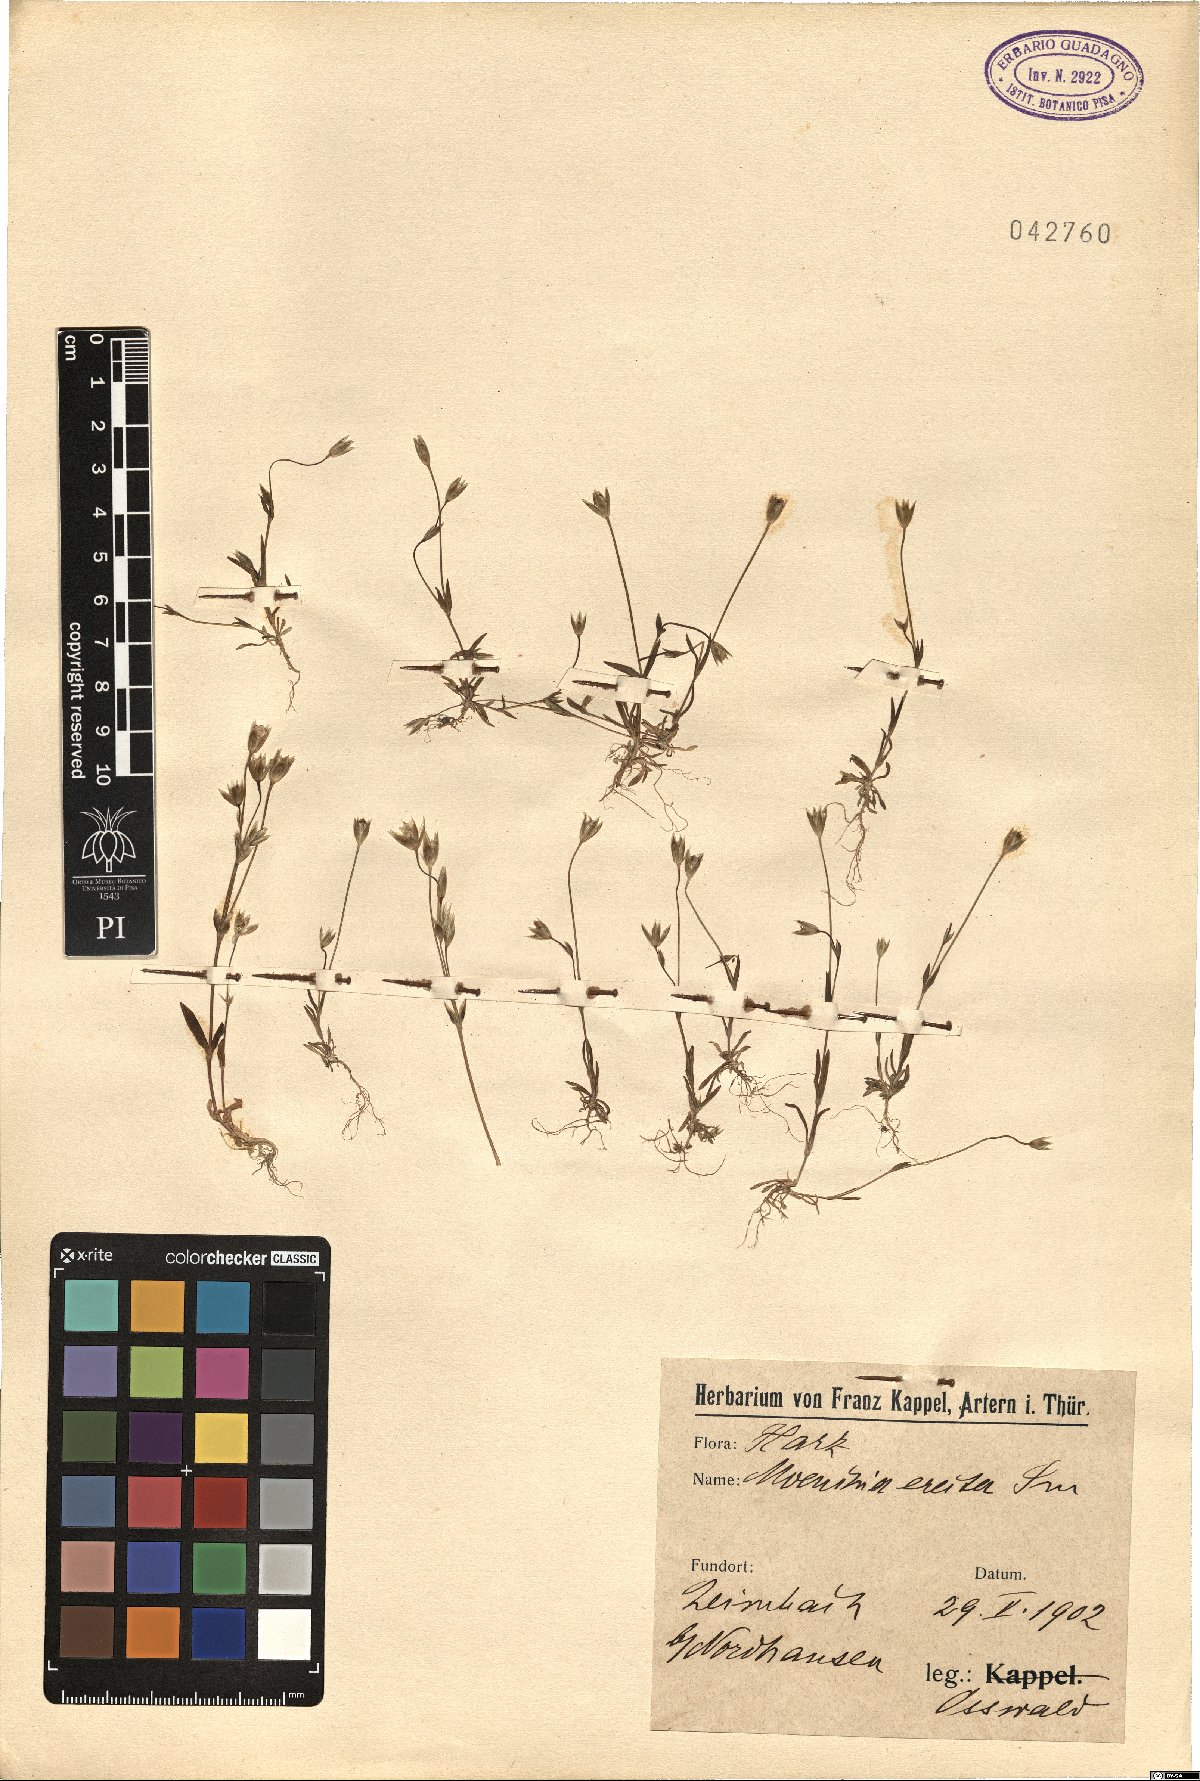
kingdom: Plantae
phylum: Tracheophyta
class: Magnoliopsida
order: Caryophyllales
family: Caryophyllaceae
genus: Moenchia
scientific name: Moenchia erecta
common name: Upright chickweed
